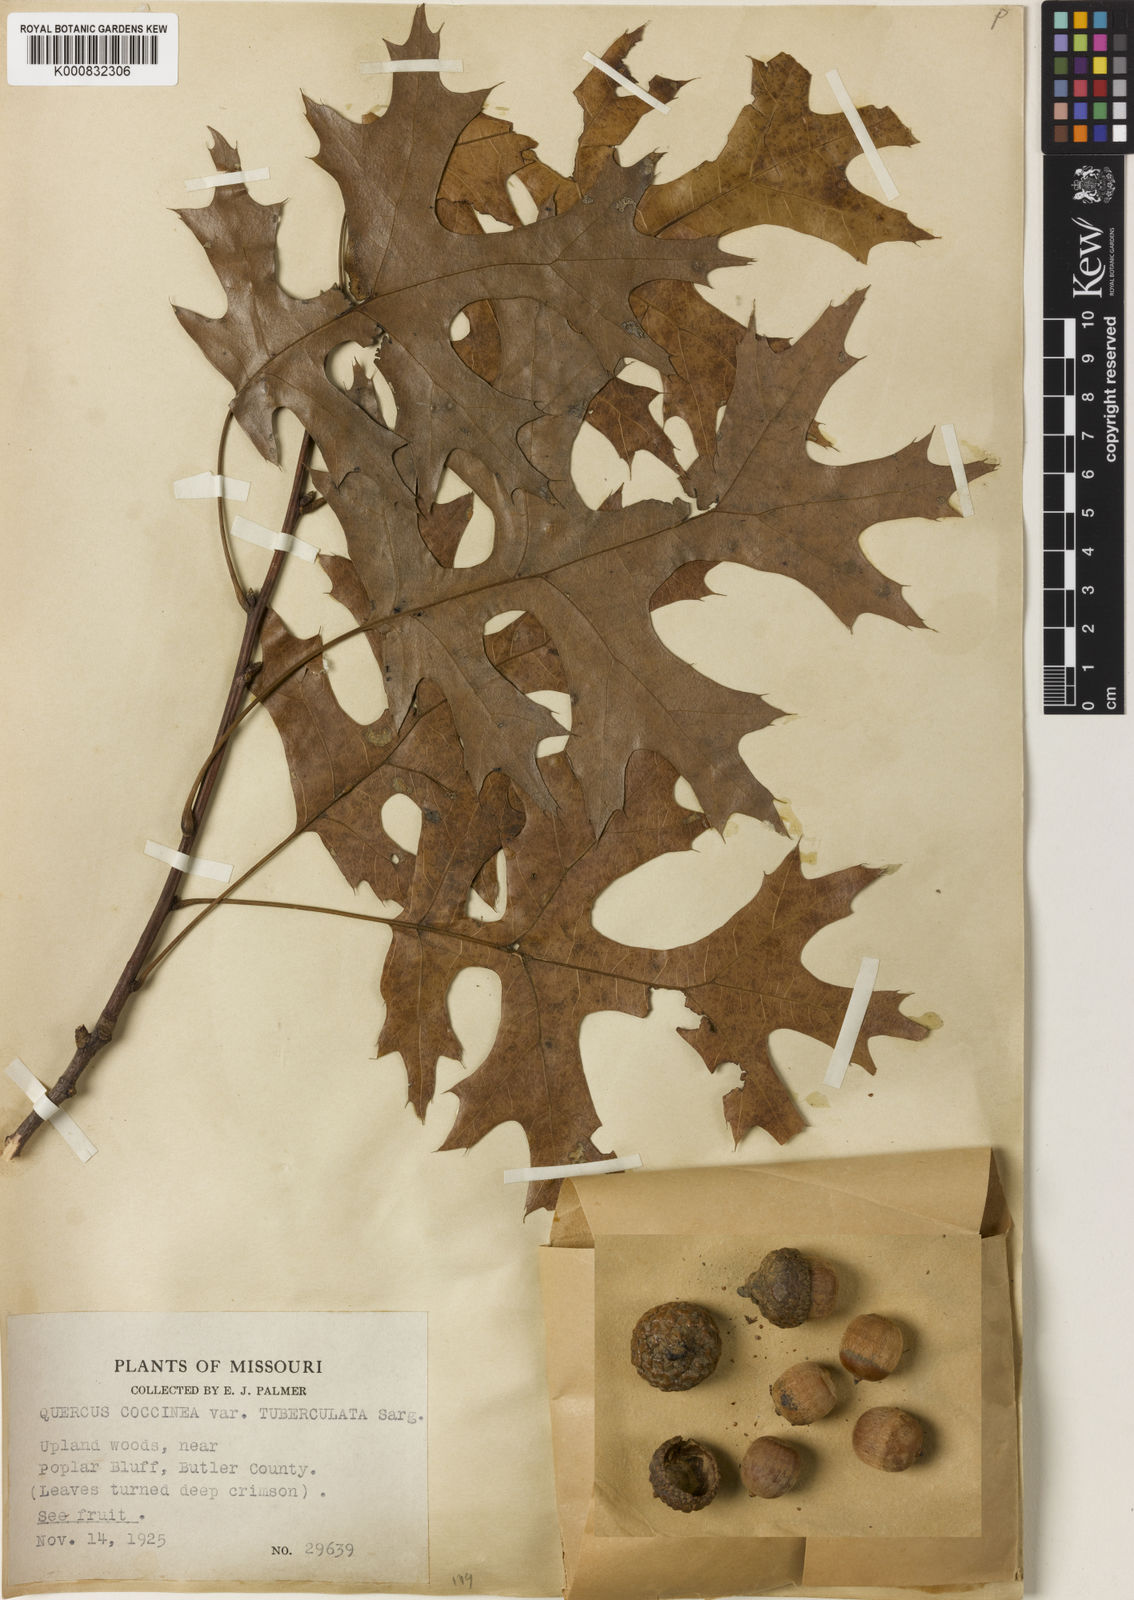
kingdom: Plantae
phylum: Tracheophyta
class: Magnoliopsida
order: Fagales
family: Fagaceae
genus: Quercus
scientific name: Quercus coccinea
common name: Scarlet oak
